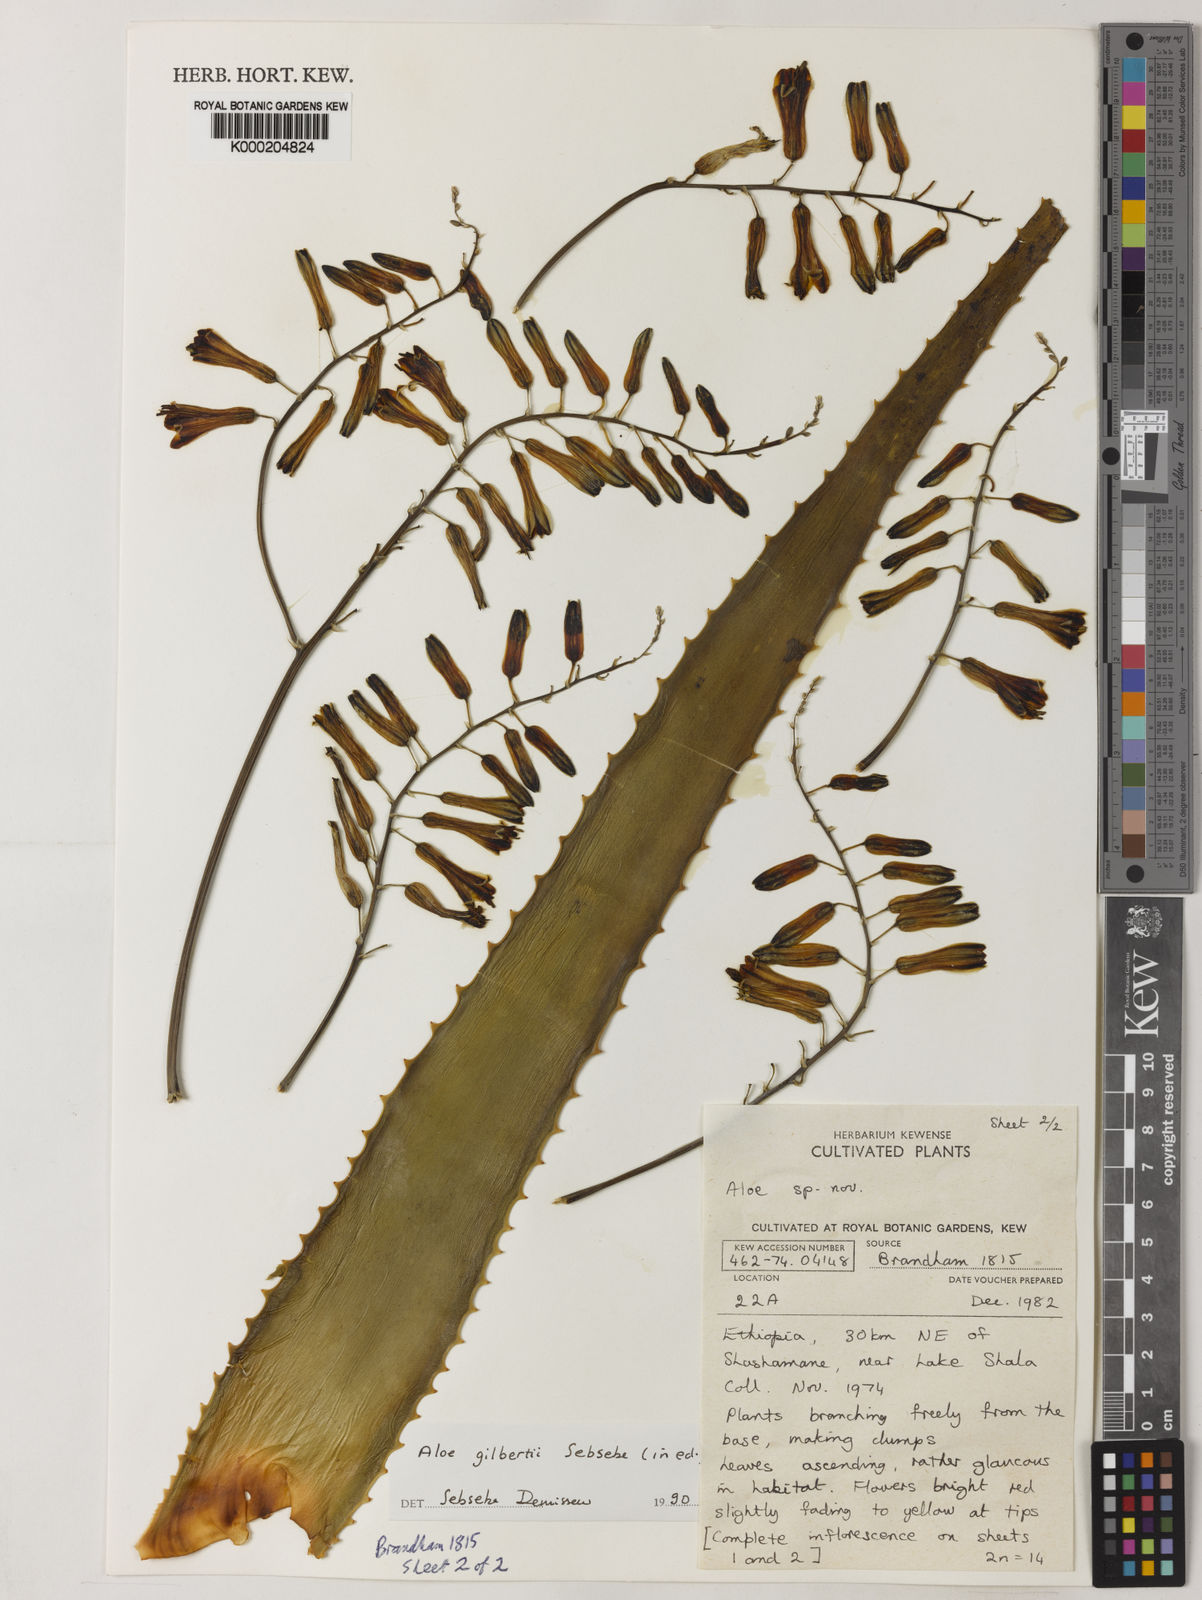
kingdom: Plantae
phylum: Tracheophyta
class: Liliopsida
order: Asparagales
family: Asphodelaceae
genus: Aloe
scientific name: Aloe gilbertii
